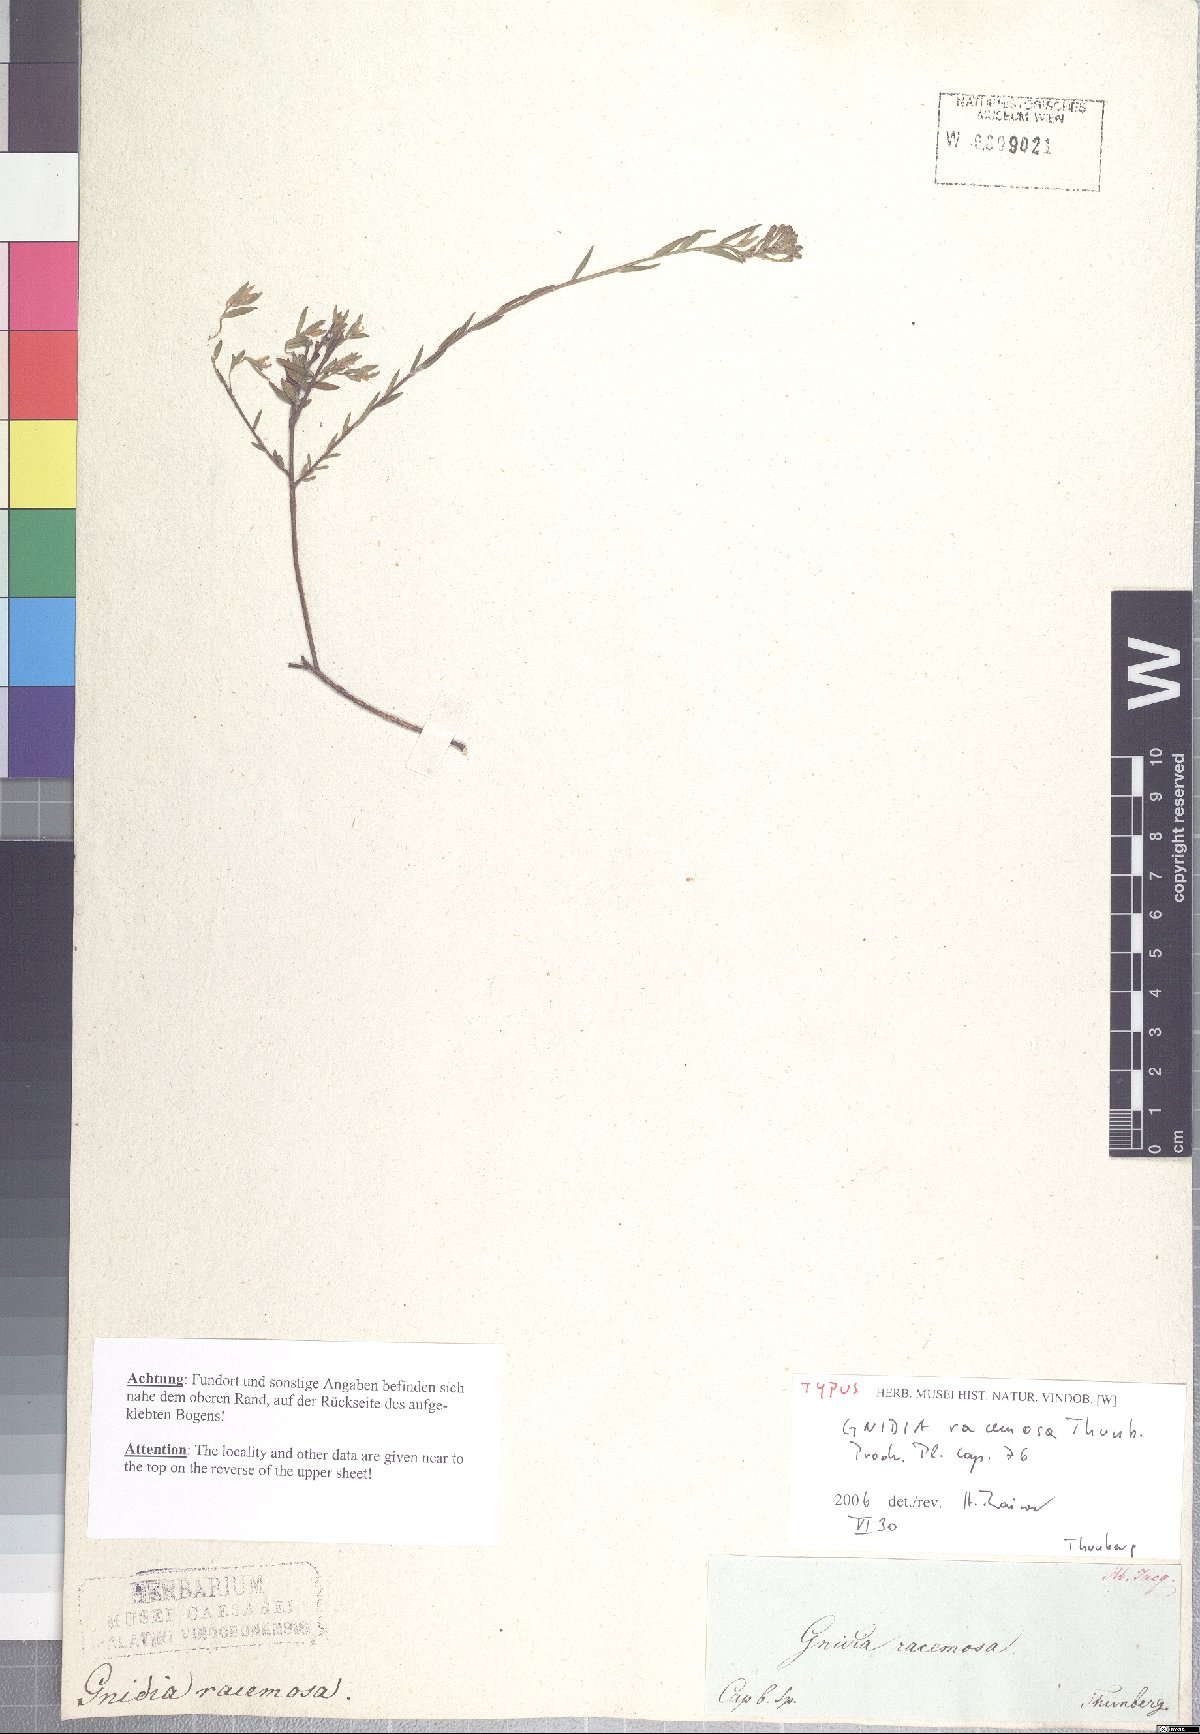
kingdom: Plantae
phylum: Tracheophyta
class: Magnoliopsida
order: Malvales
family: Thymelaeaceae
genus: Gnidia
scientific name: Gnidia racemosa
